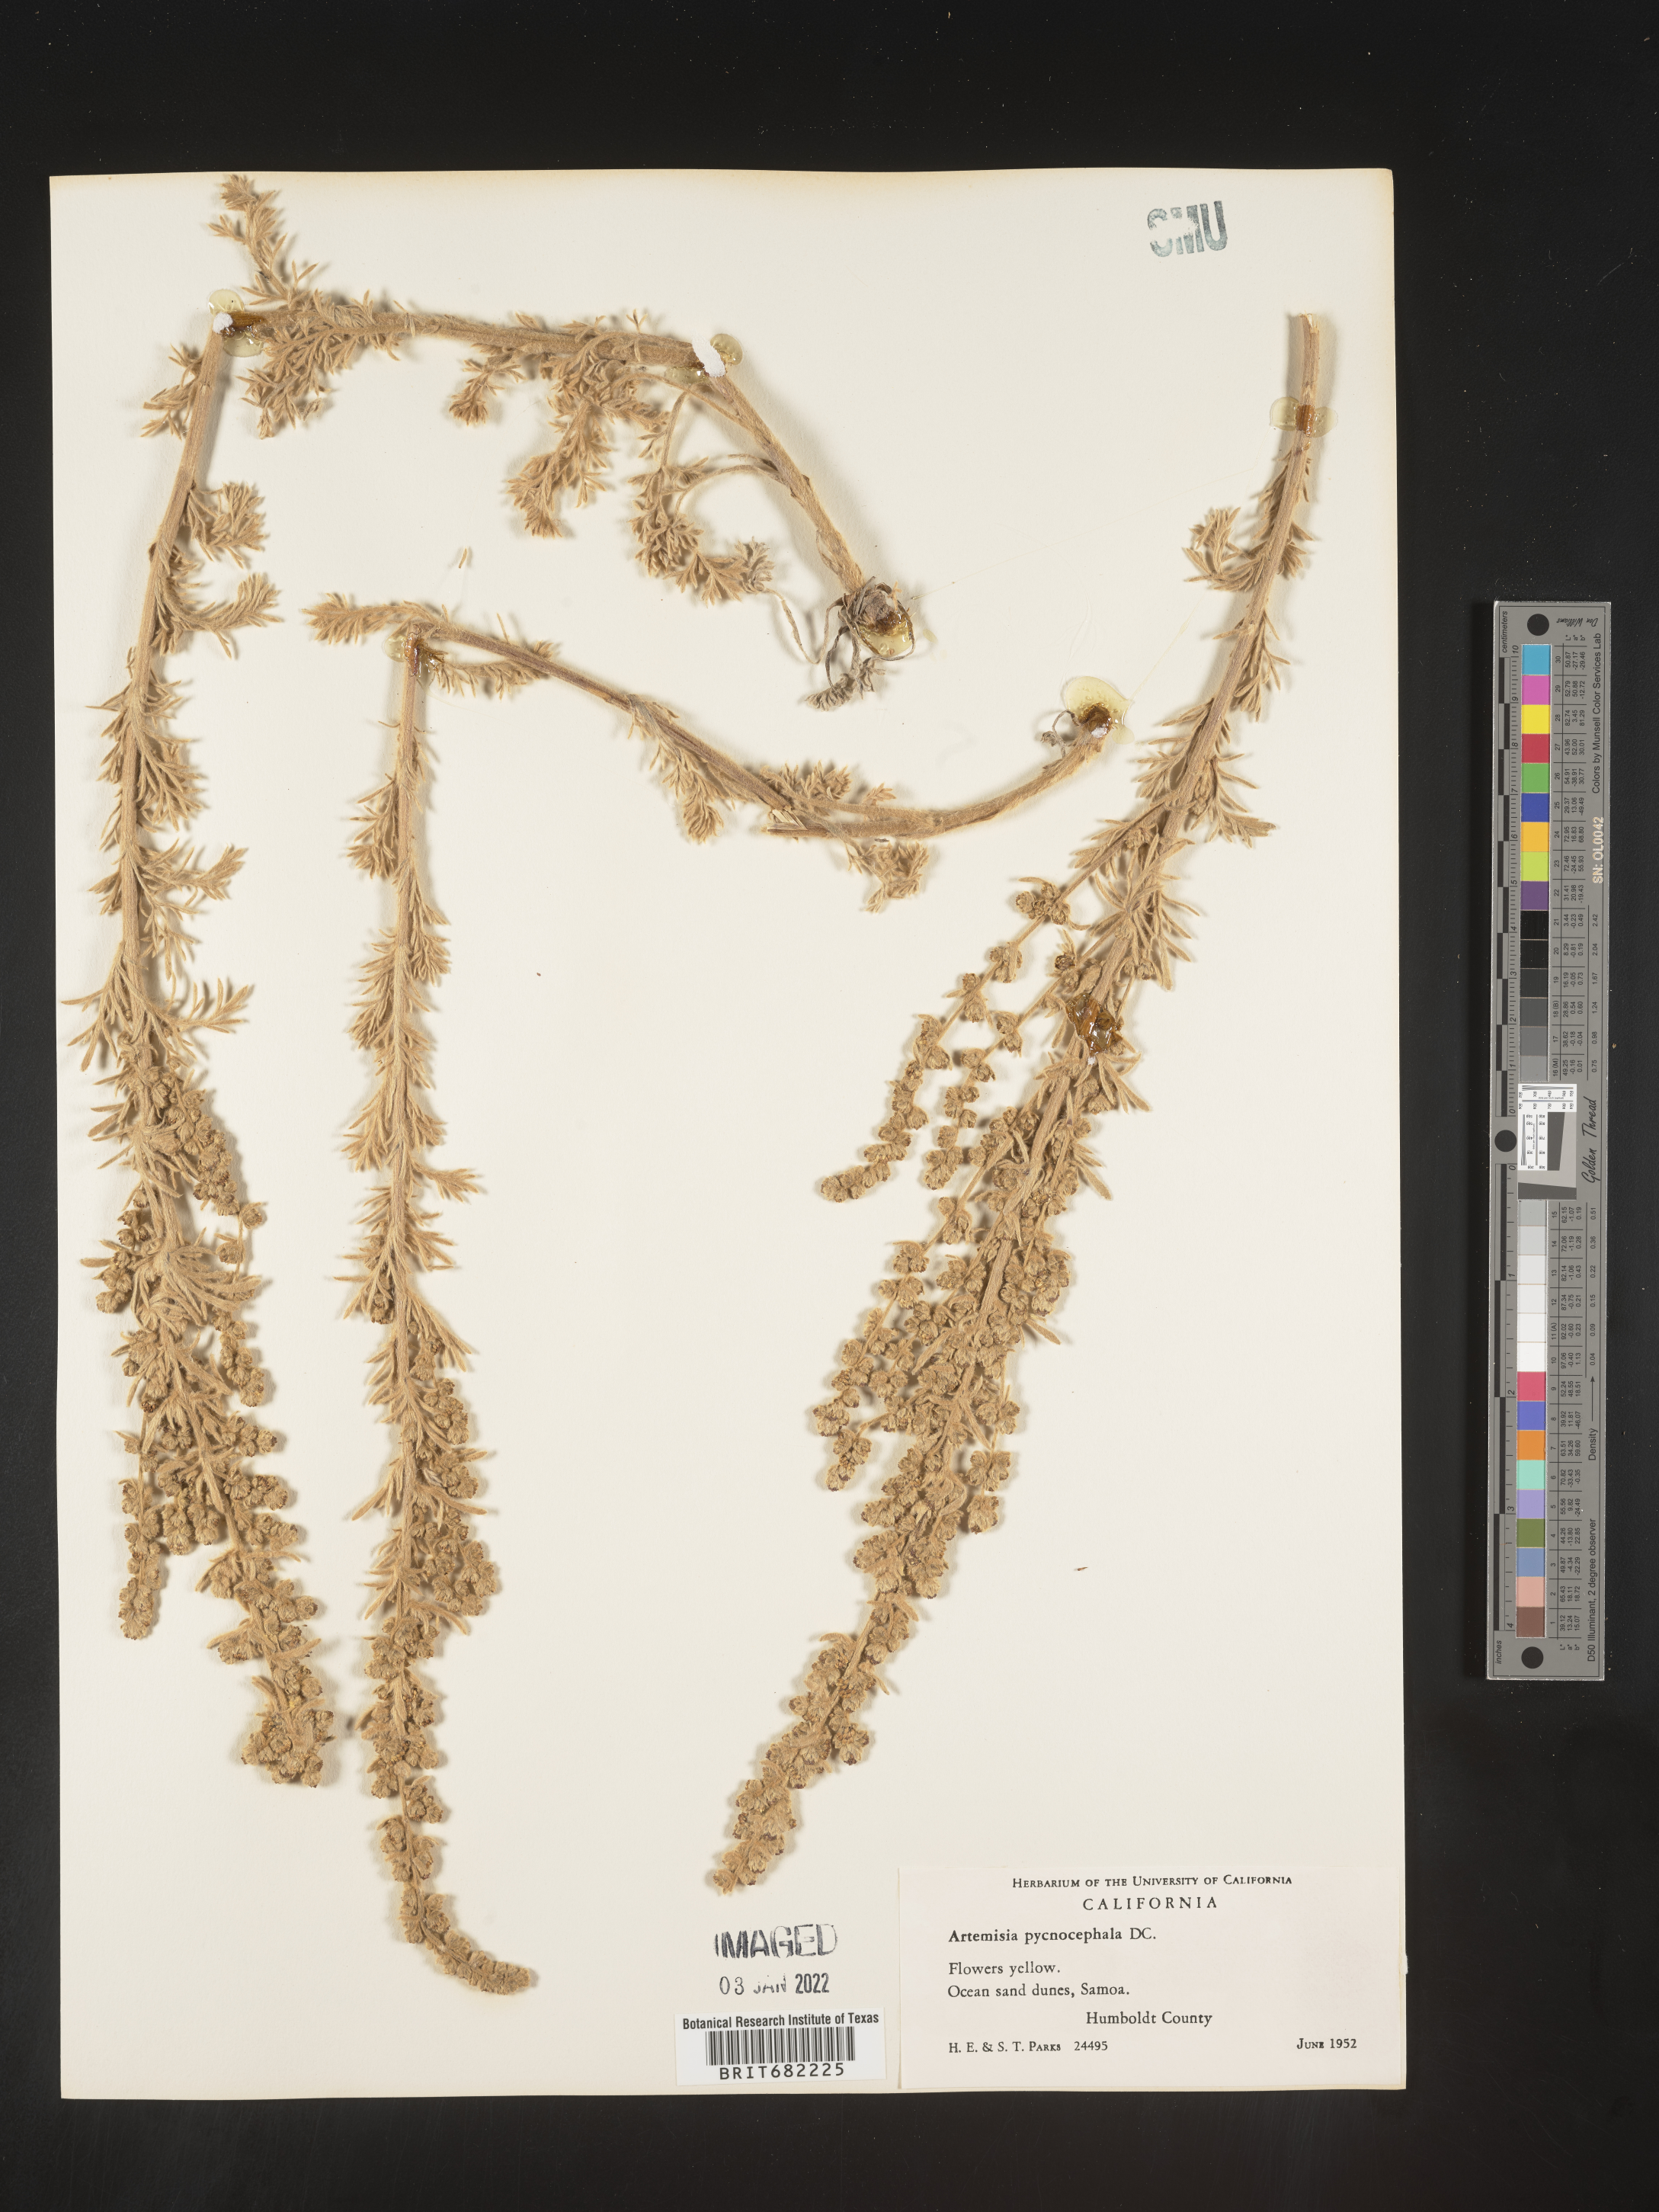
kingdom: Plantae
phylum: Tracheophyta
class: Magnoliopsida
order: Asterales
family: Asteraceae
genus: Artemisia
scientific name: Artemisia pycnocephala
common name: Coastal sagewort
